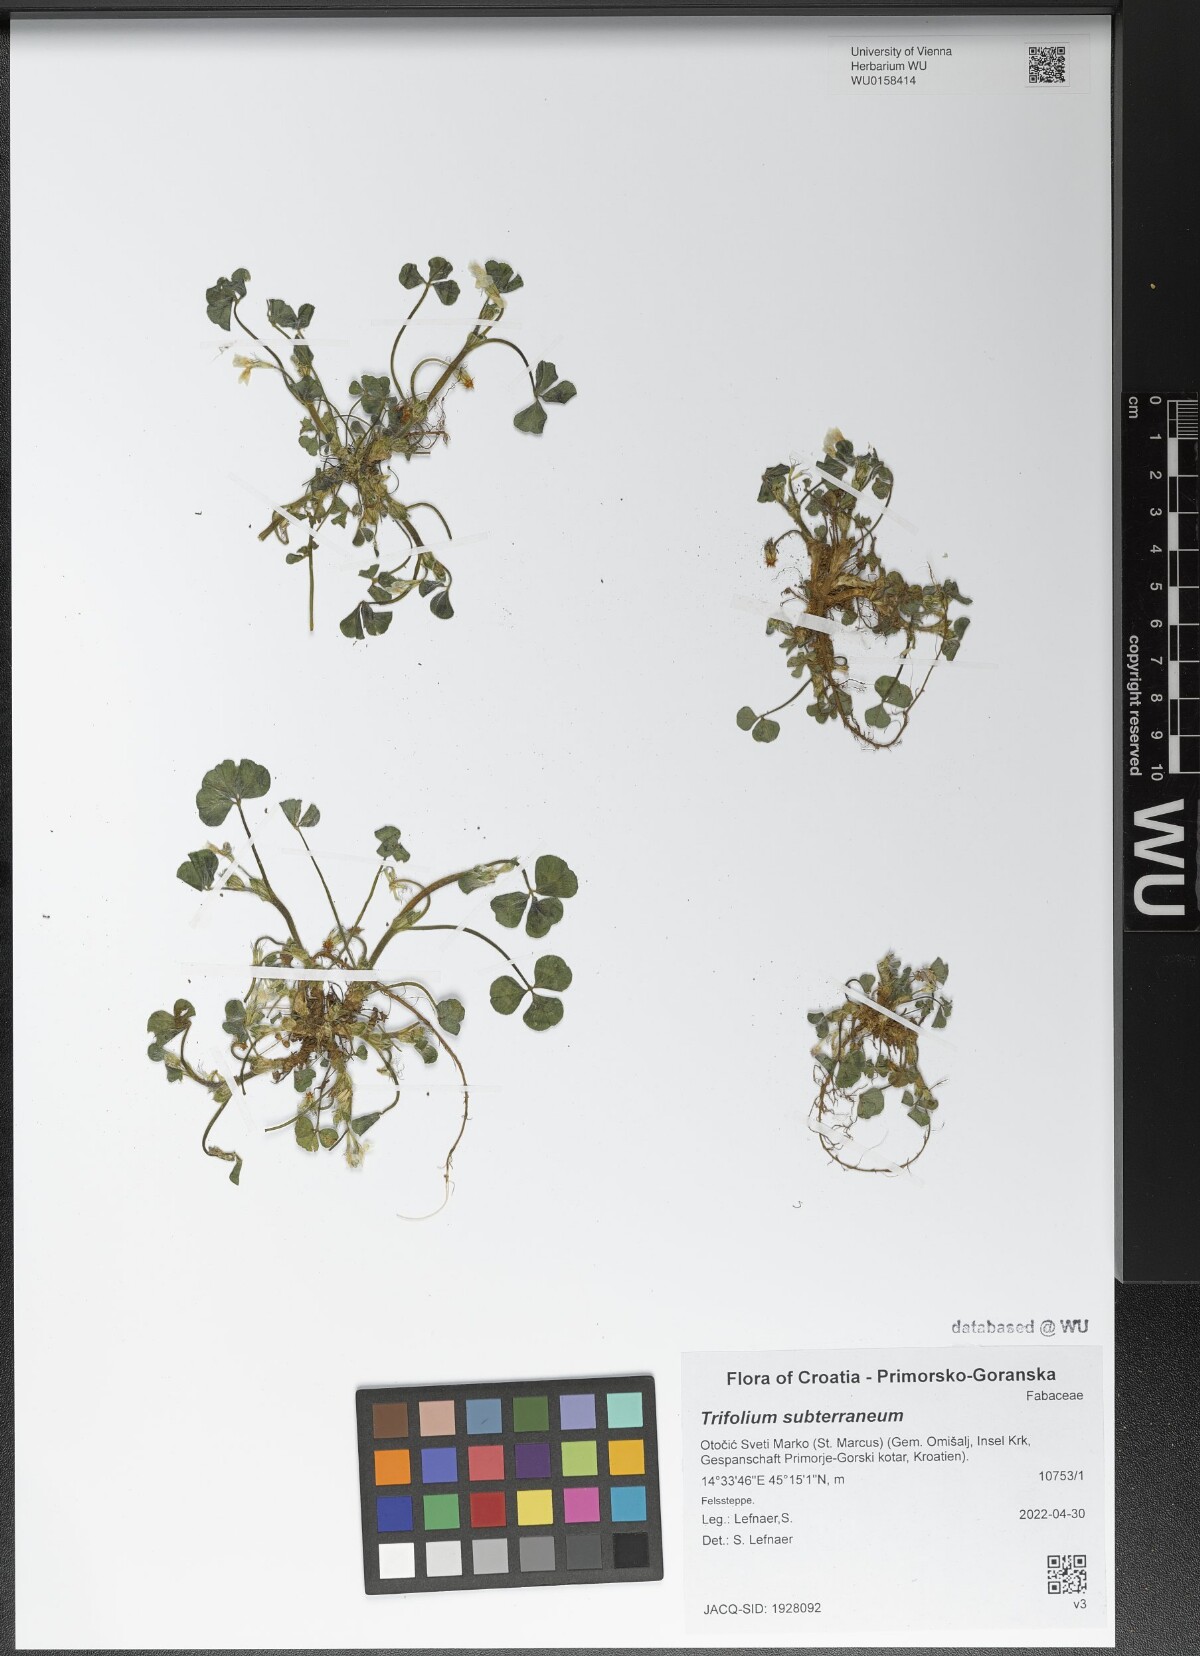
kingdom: Plantae
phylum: Tracheophyta
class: Magnoliopsida
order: Fabales
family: Fabaceae
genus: Trifolium
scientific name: Trifolium subterraneum
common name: Subterranean clover
